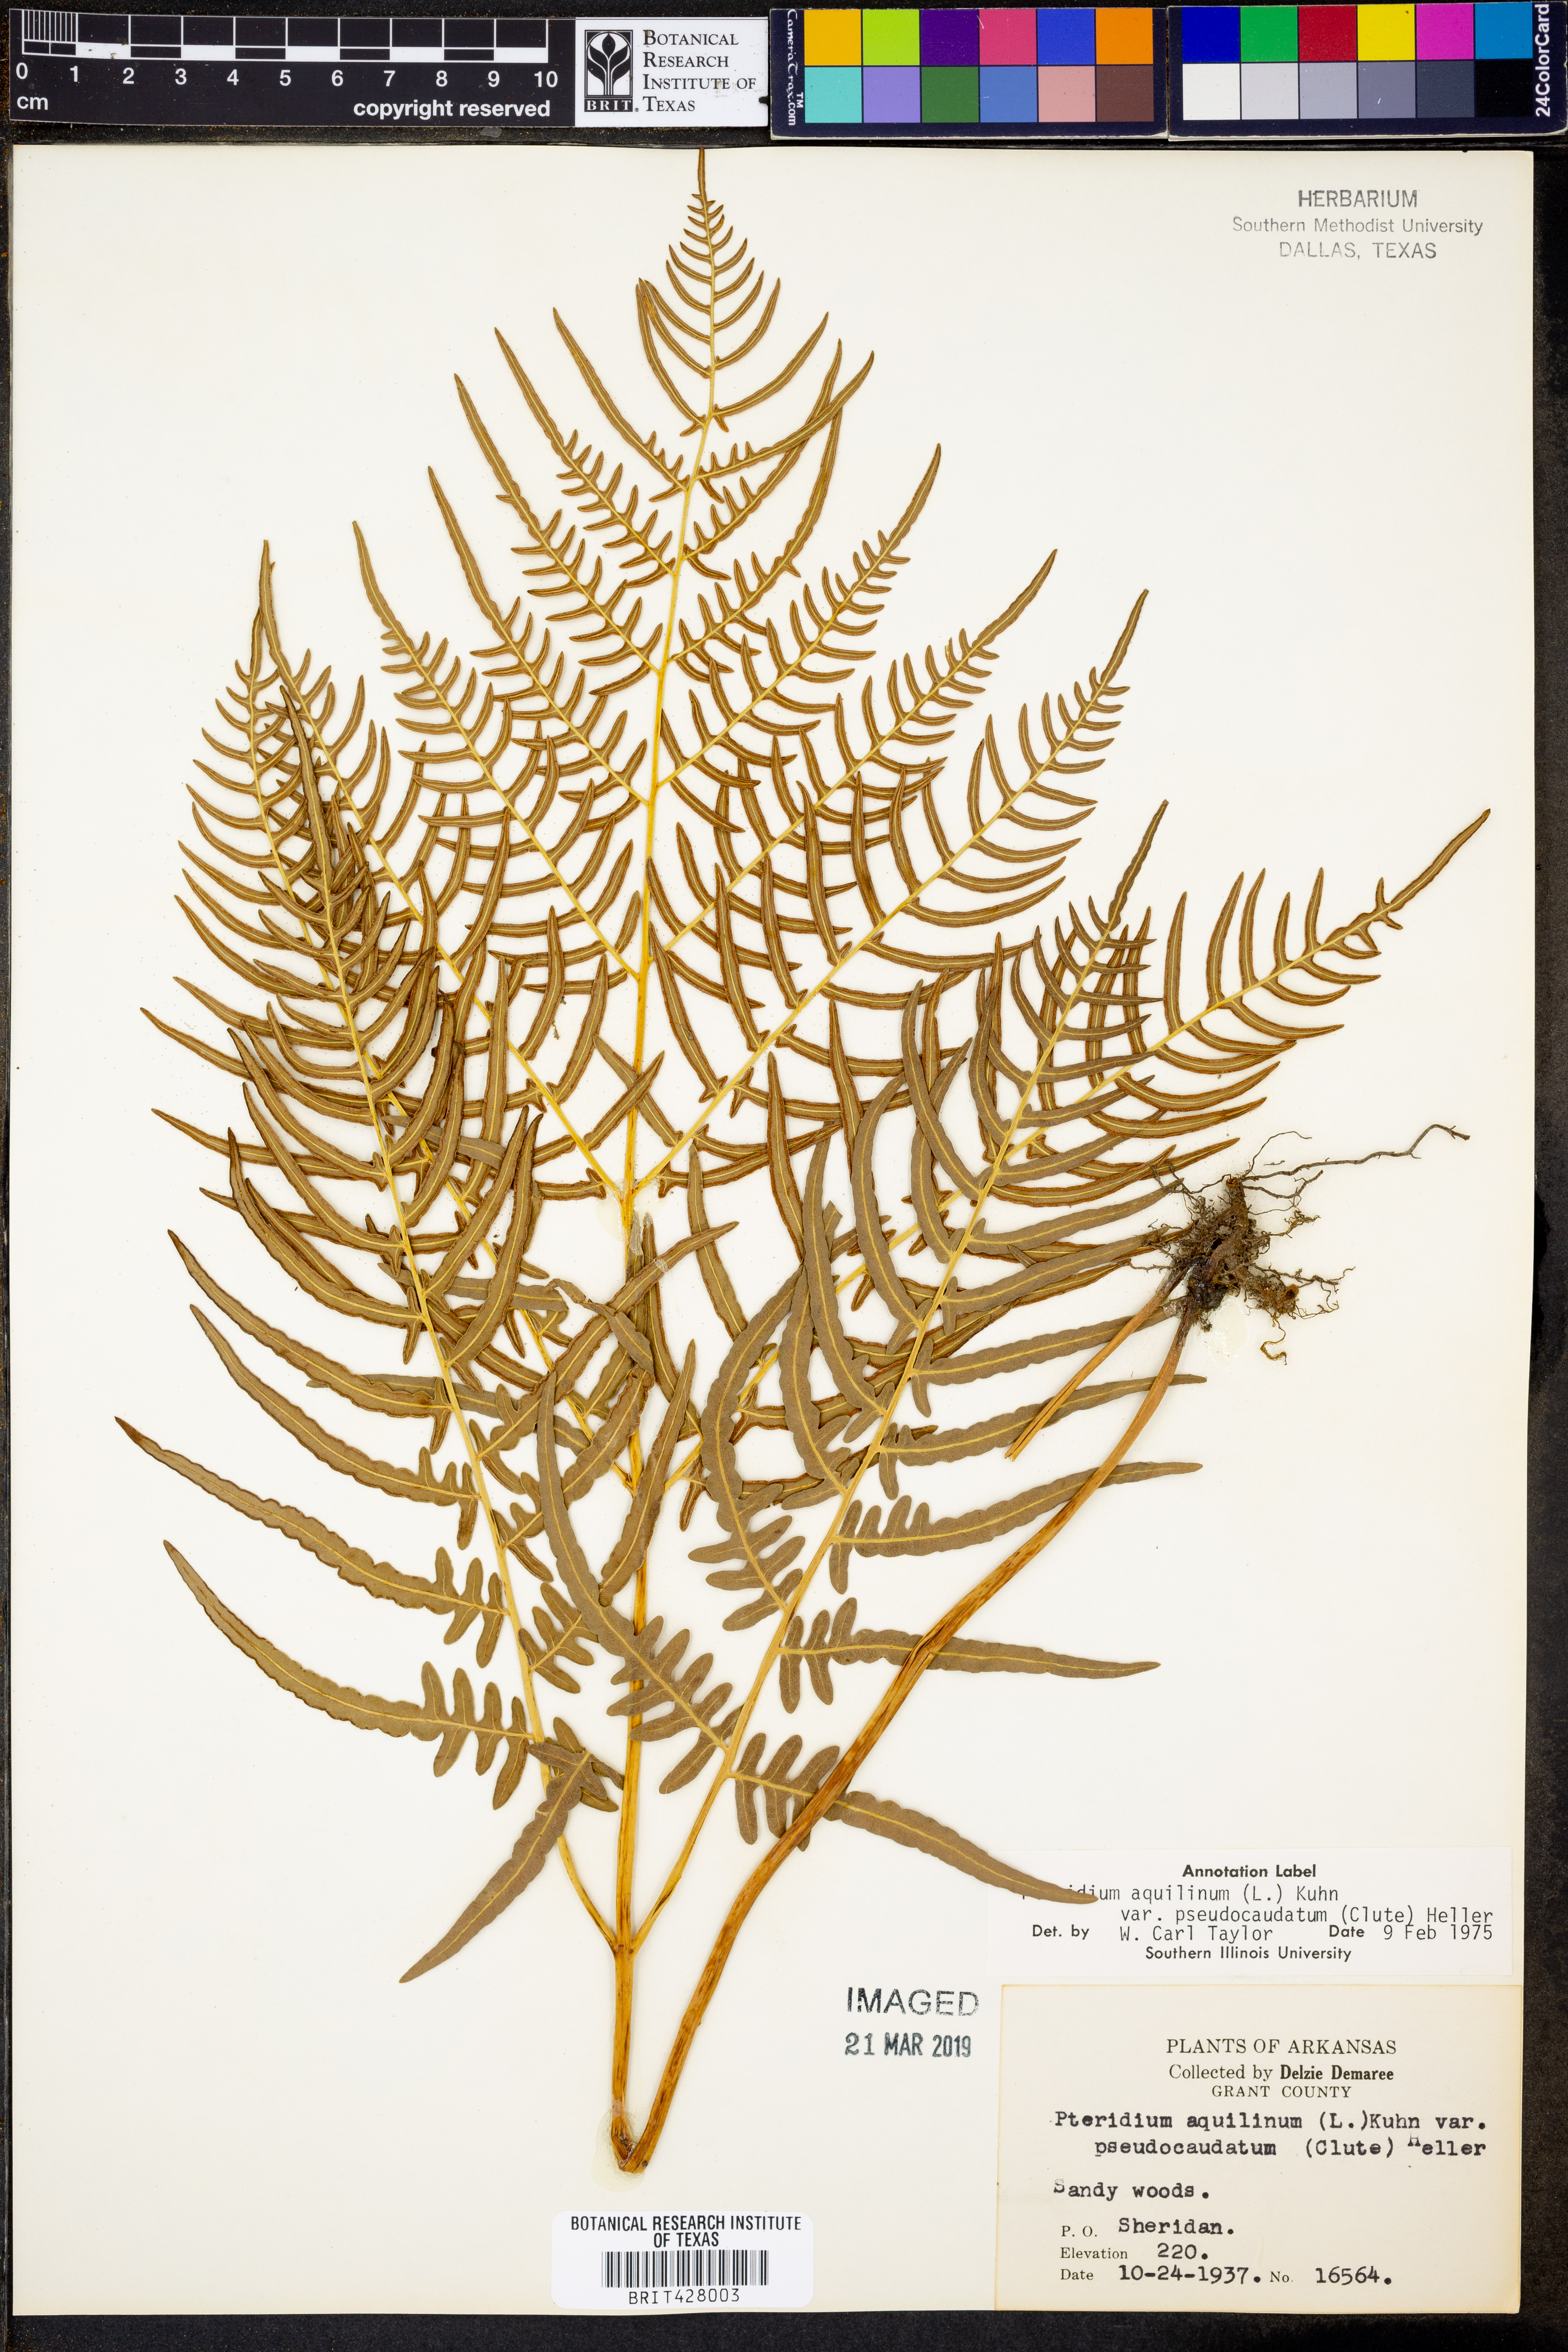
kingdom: Plantae
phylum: Tracheophyta
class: Polypodiopsida
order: Polypodiales
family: Dennstaedtiaceae
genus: Pteridium
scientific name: Pteridium aquilinum
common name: Bracken
